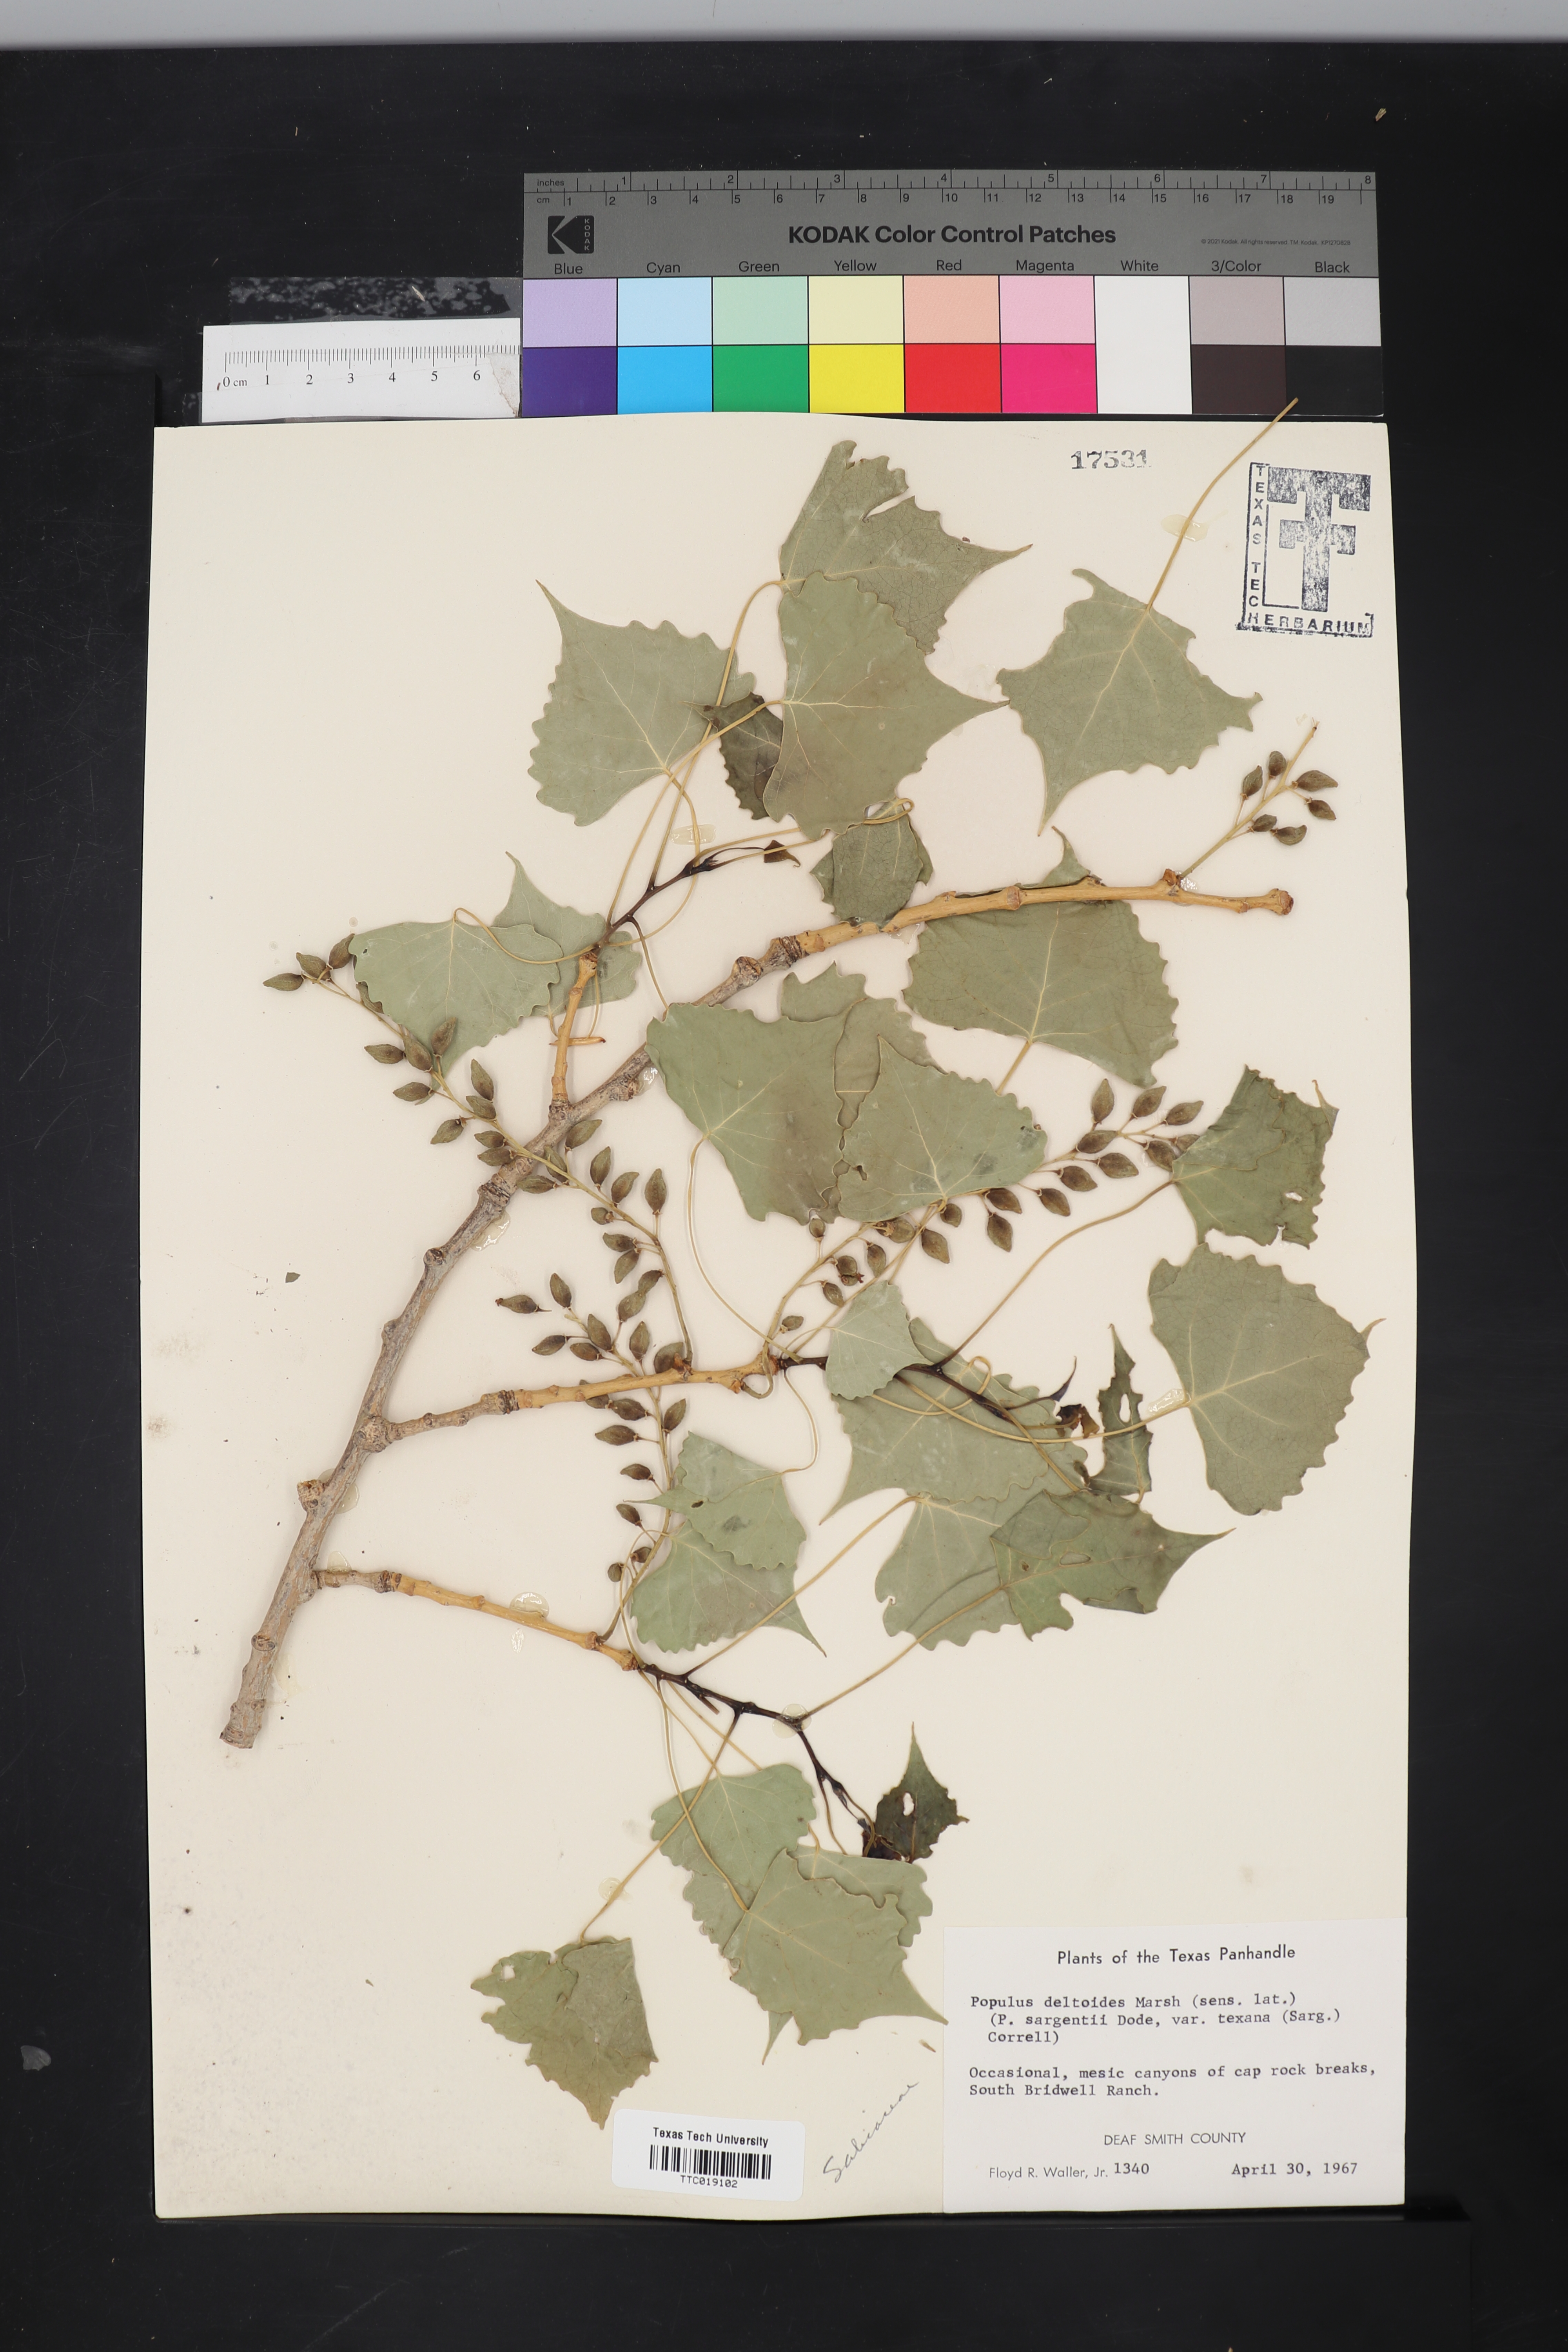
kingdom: Plantae
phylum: Tracheophyta
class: Magnoliopsida
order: Malpighiales
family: Salicaceae
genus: Populus
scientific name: Populus deltoides
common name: Eastern cottonwood
